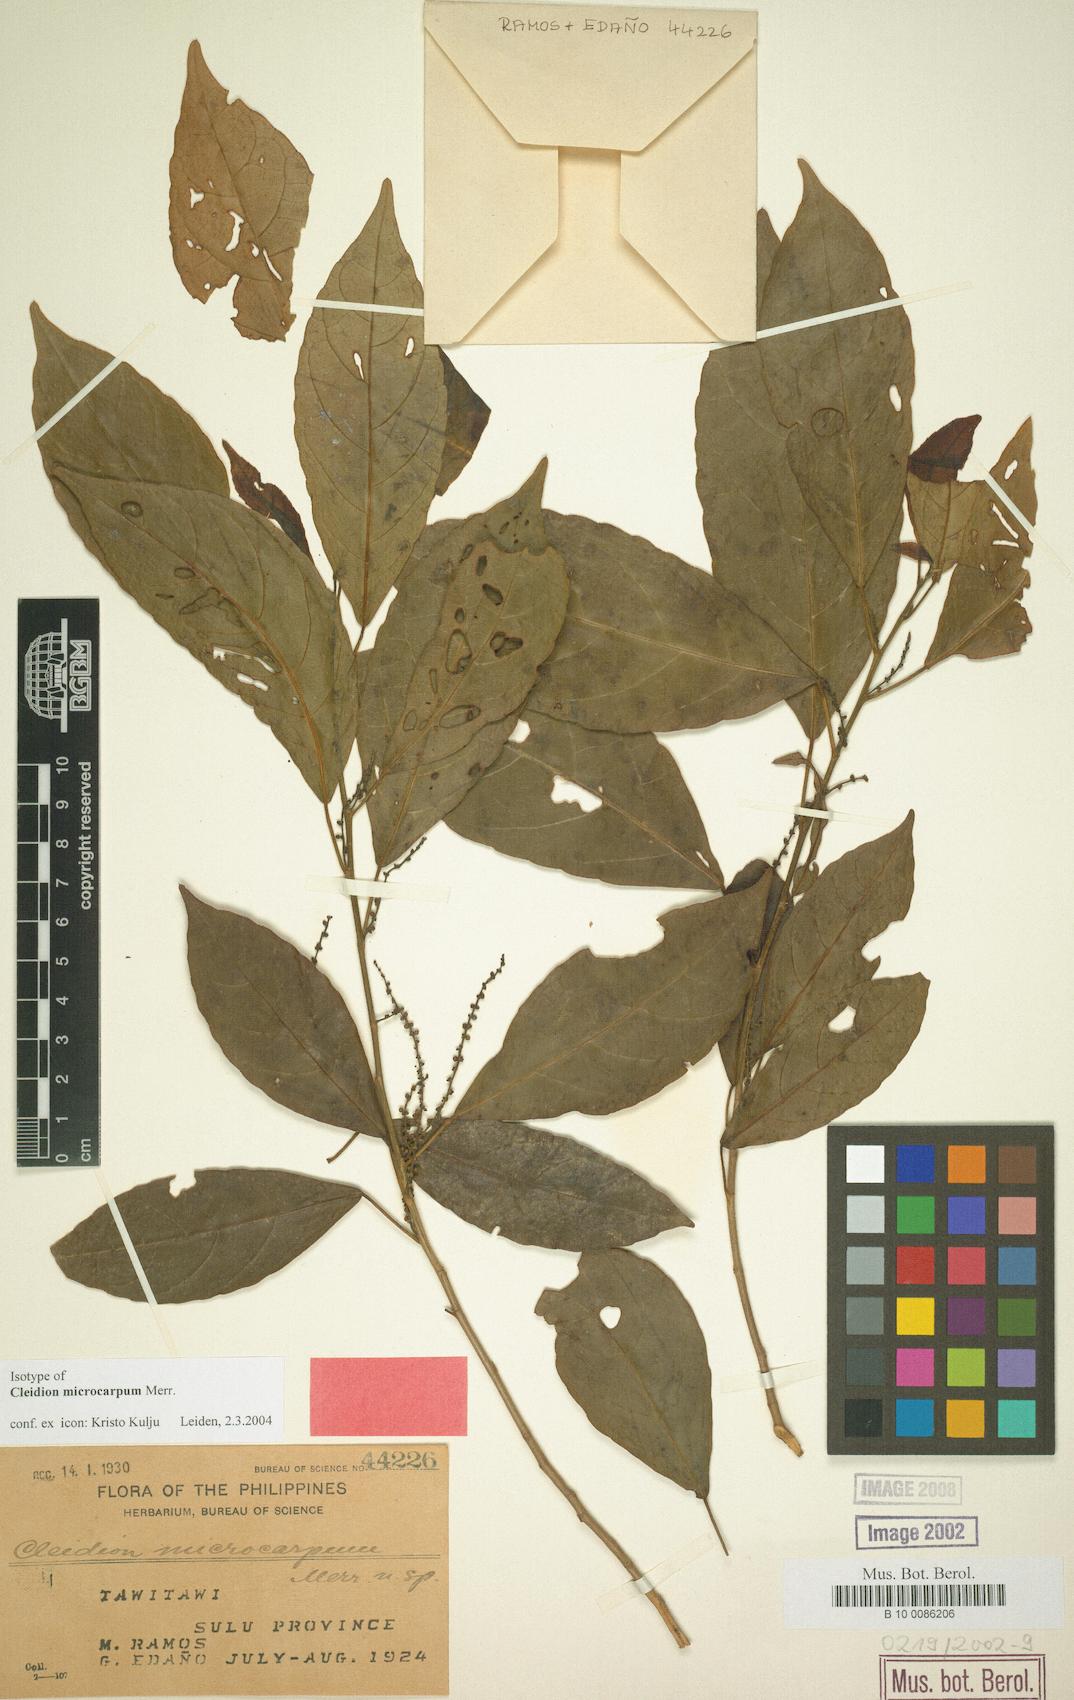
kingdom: Plantae
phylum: Tracheophyta
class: Magnoliopsida
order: Malpighiales
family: Euphorbiaceae
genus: Cleidion
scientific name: Cleidion microcarpum
